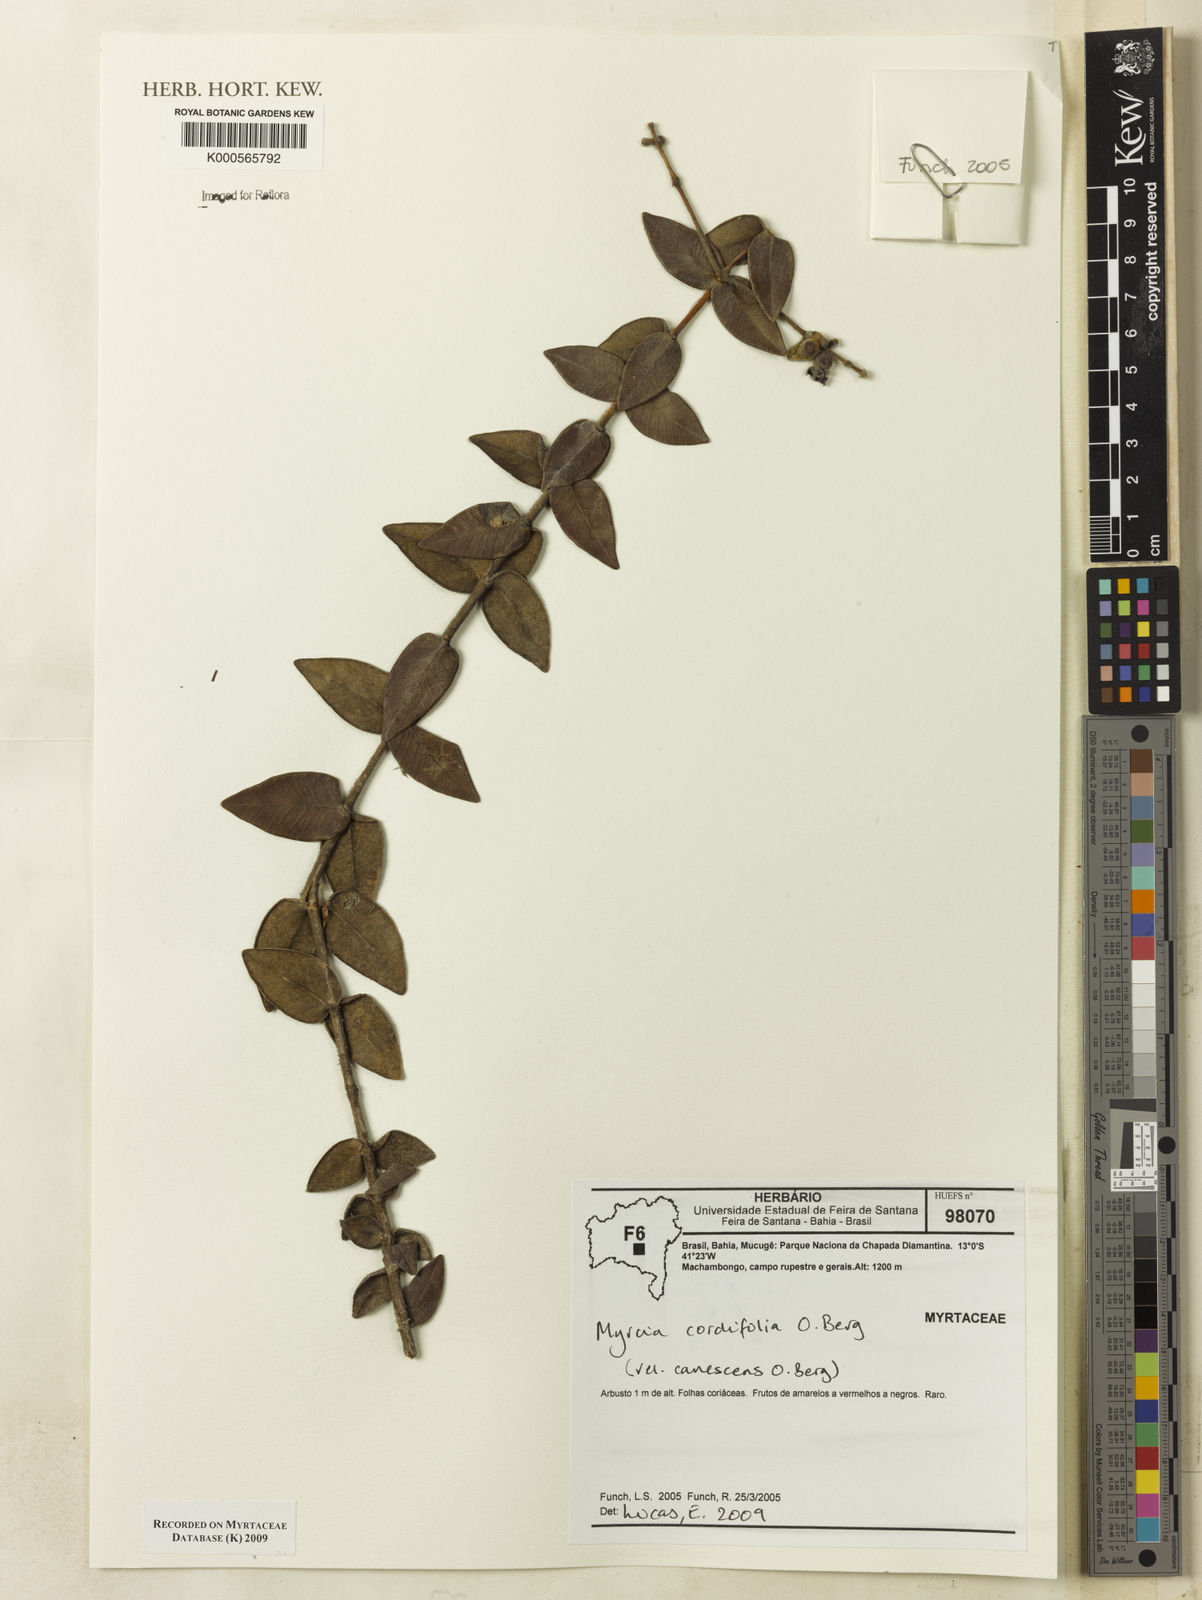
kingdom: Plantae
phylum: Tracheophyta
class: Magnoliopsida
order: Myrtales
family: Myrtaceae
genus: Myrcia
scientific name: Myrcia lasiantha
